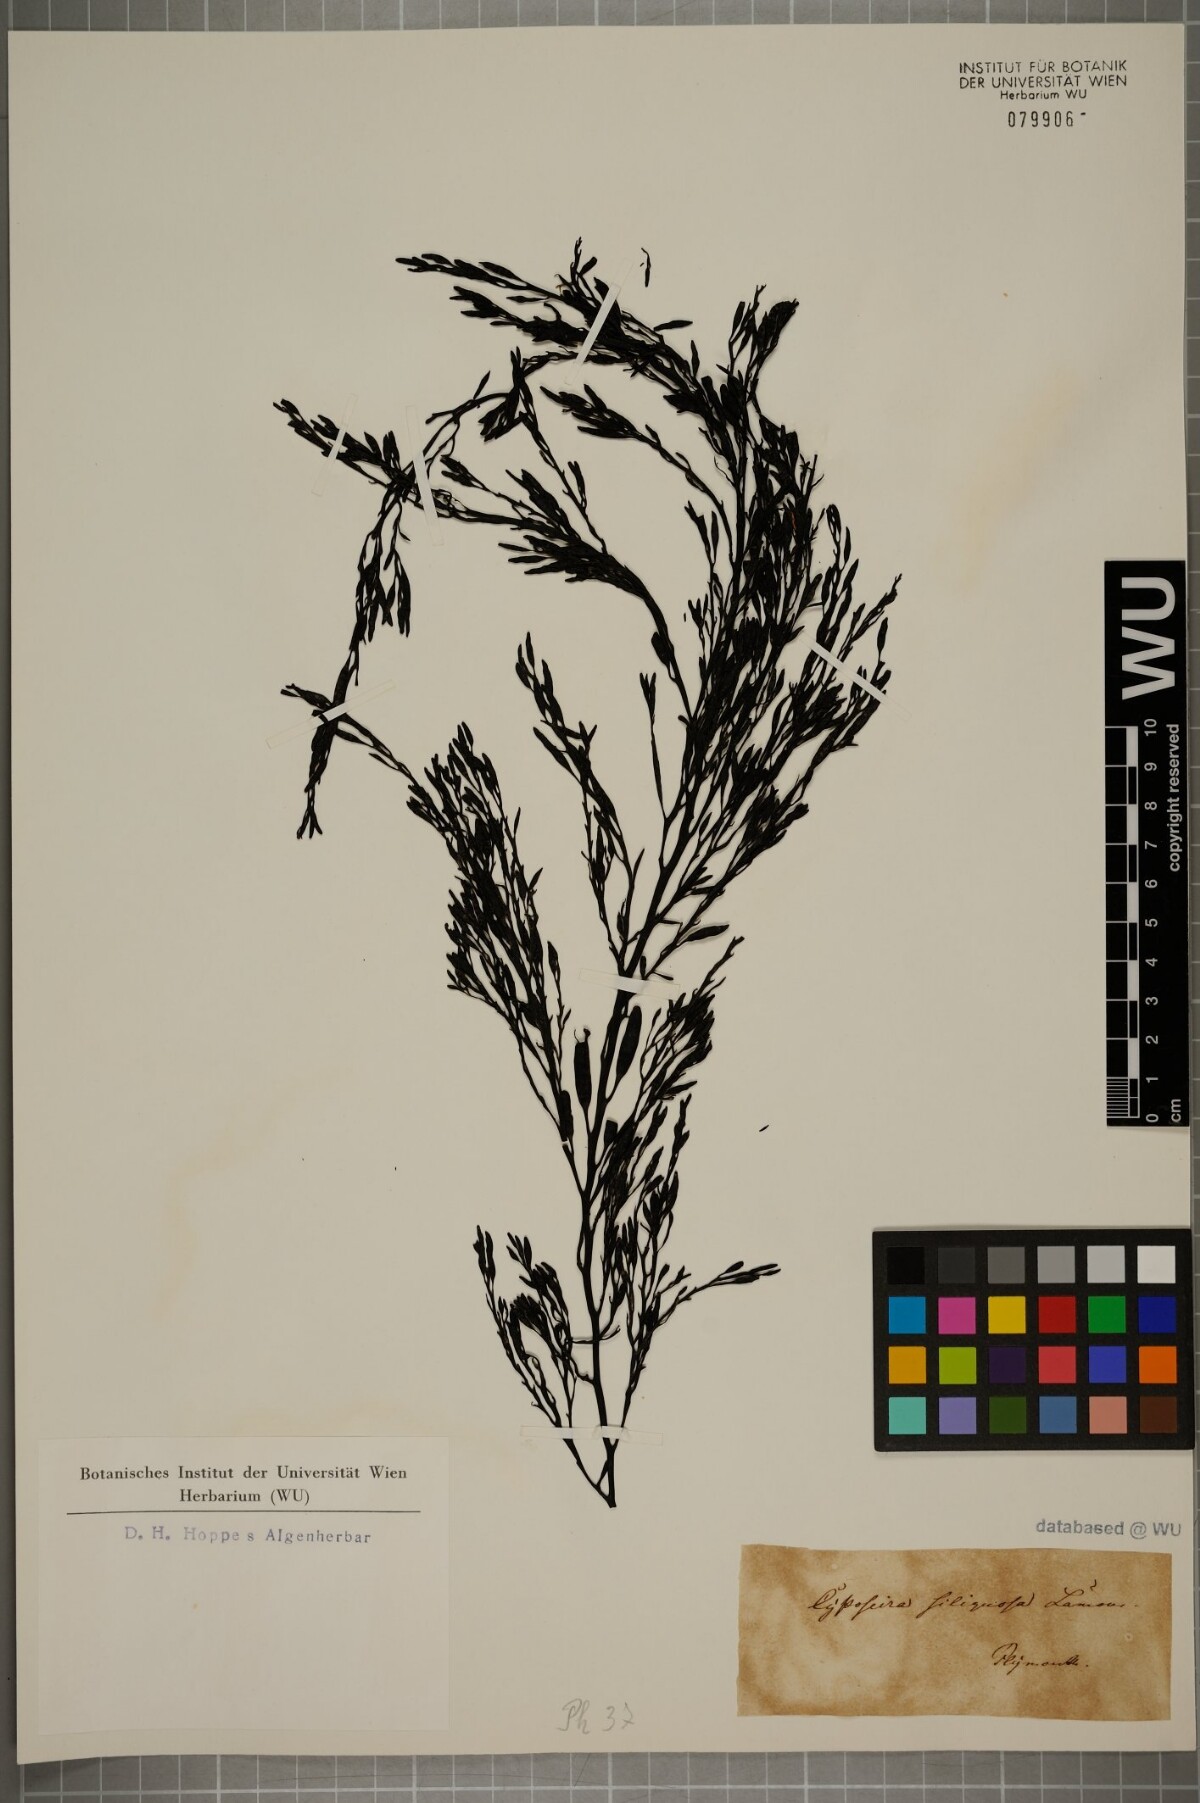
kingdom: Chromista
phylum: Ochrophyta
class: Phaeophyceae
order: Fucales
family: Sargassaceae
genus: Cystophora
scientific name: Cystophora
